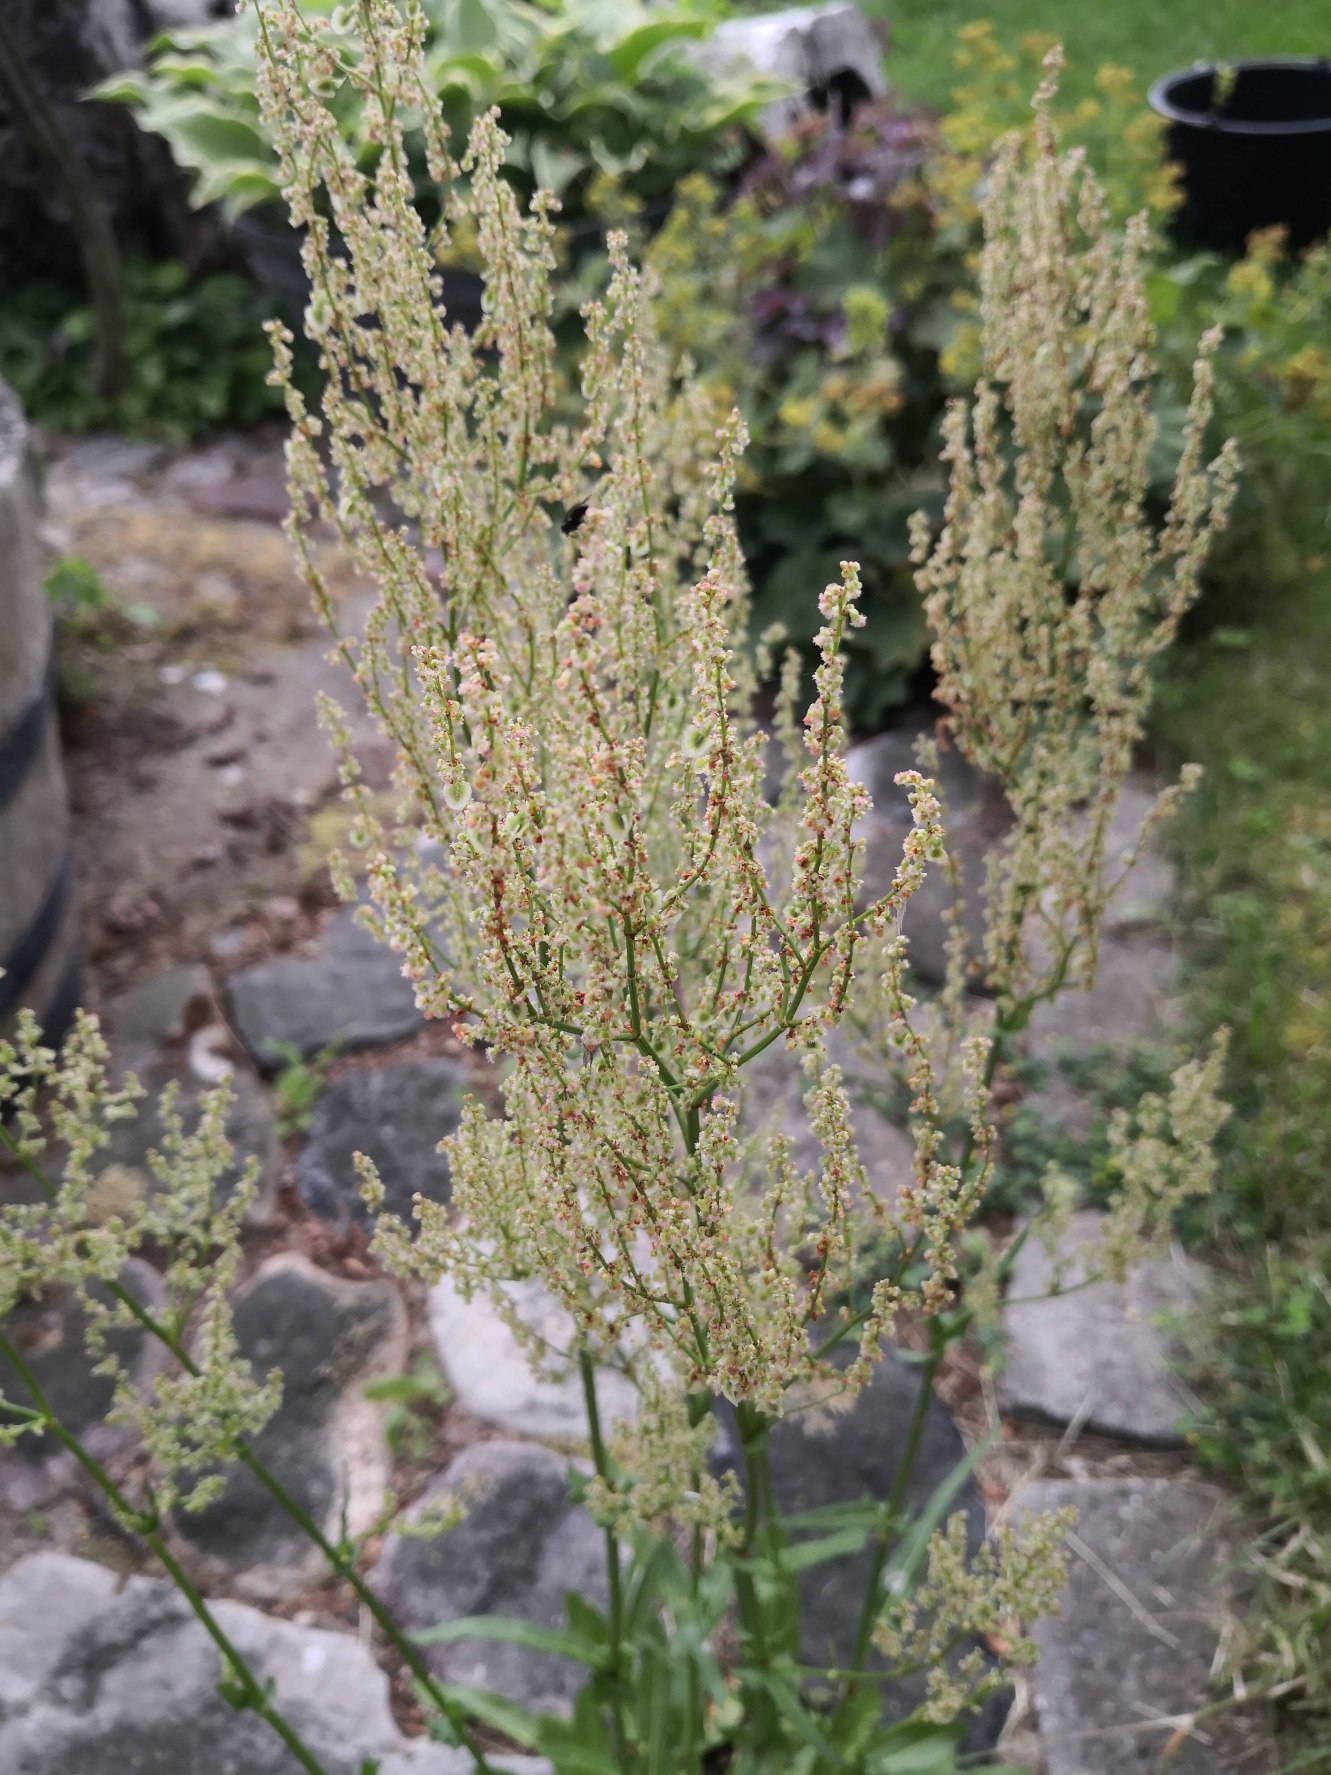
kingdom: Plantae
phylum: Tracheophyta
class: Magnoliopsida
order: Caryophyllales
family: Polygonaceae
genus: Rumex
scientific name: Rumex thyrsiflorus
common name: Dusk-syre
